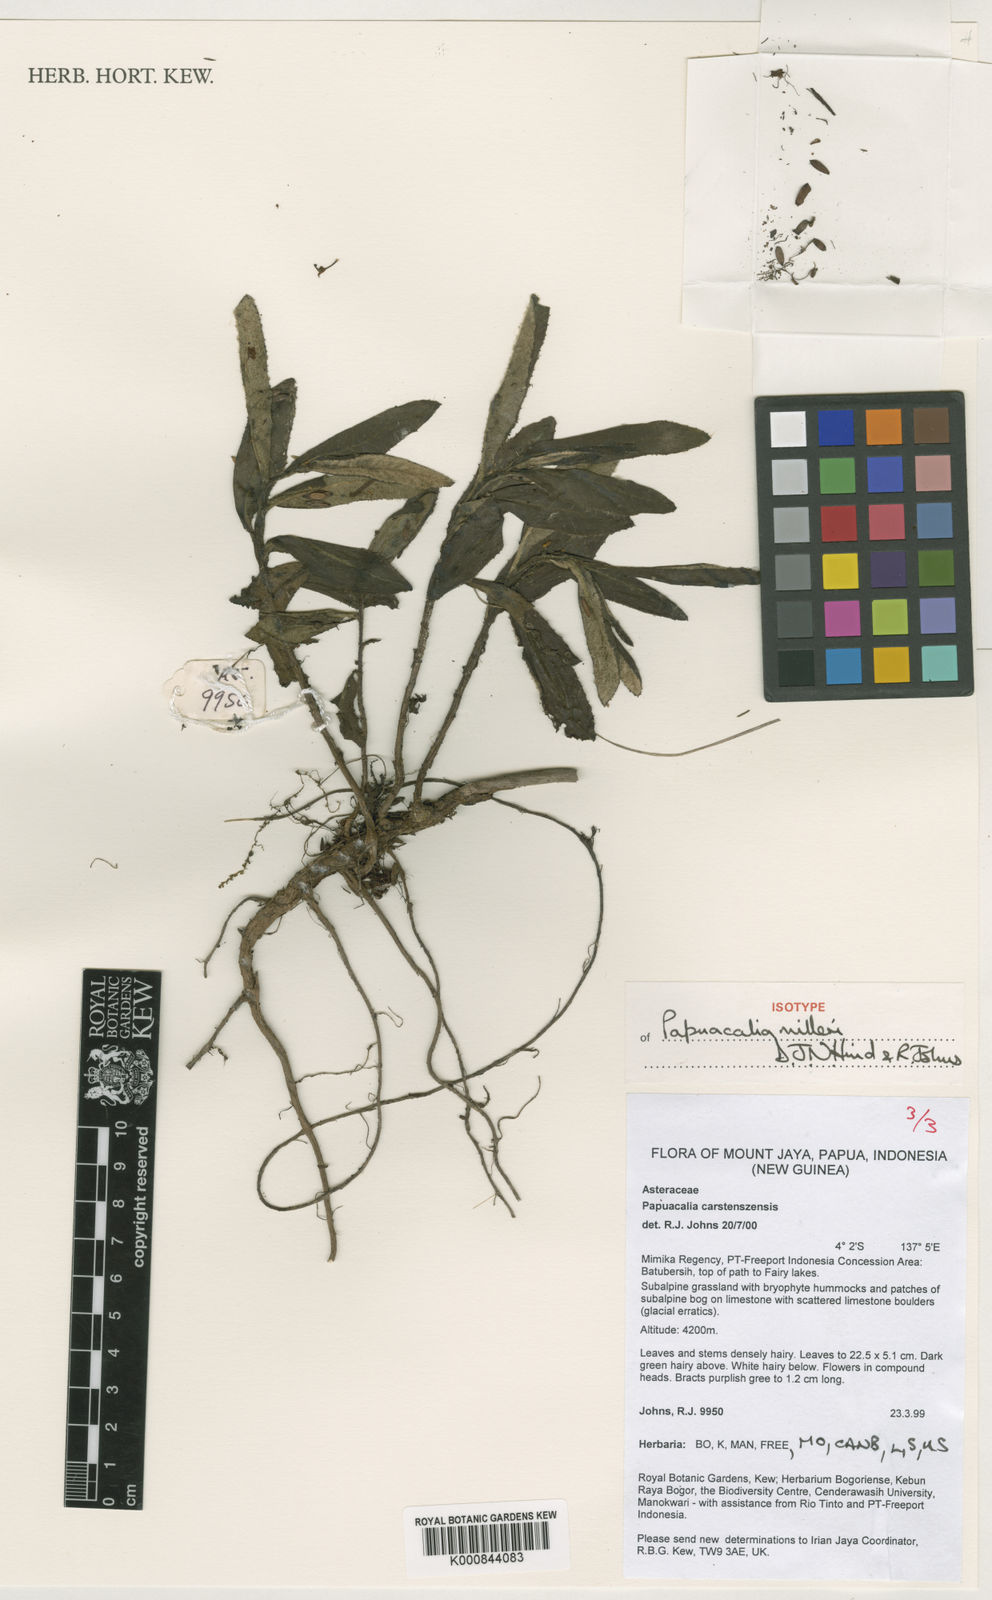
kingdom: Plantae
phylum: Tracheophyta
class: Magnoliopsida
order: Asterales
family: Asteraceae
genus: Papuacalia
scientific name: Papuacalia milleri
